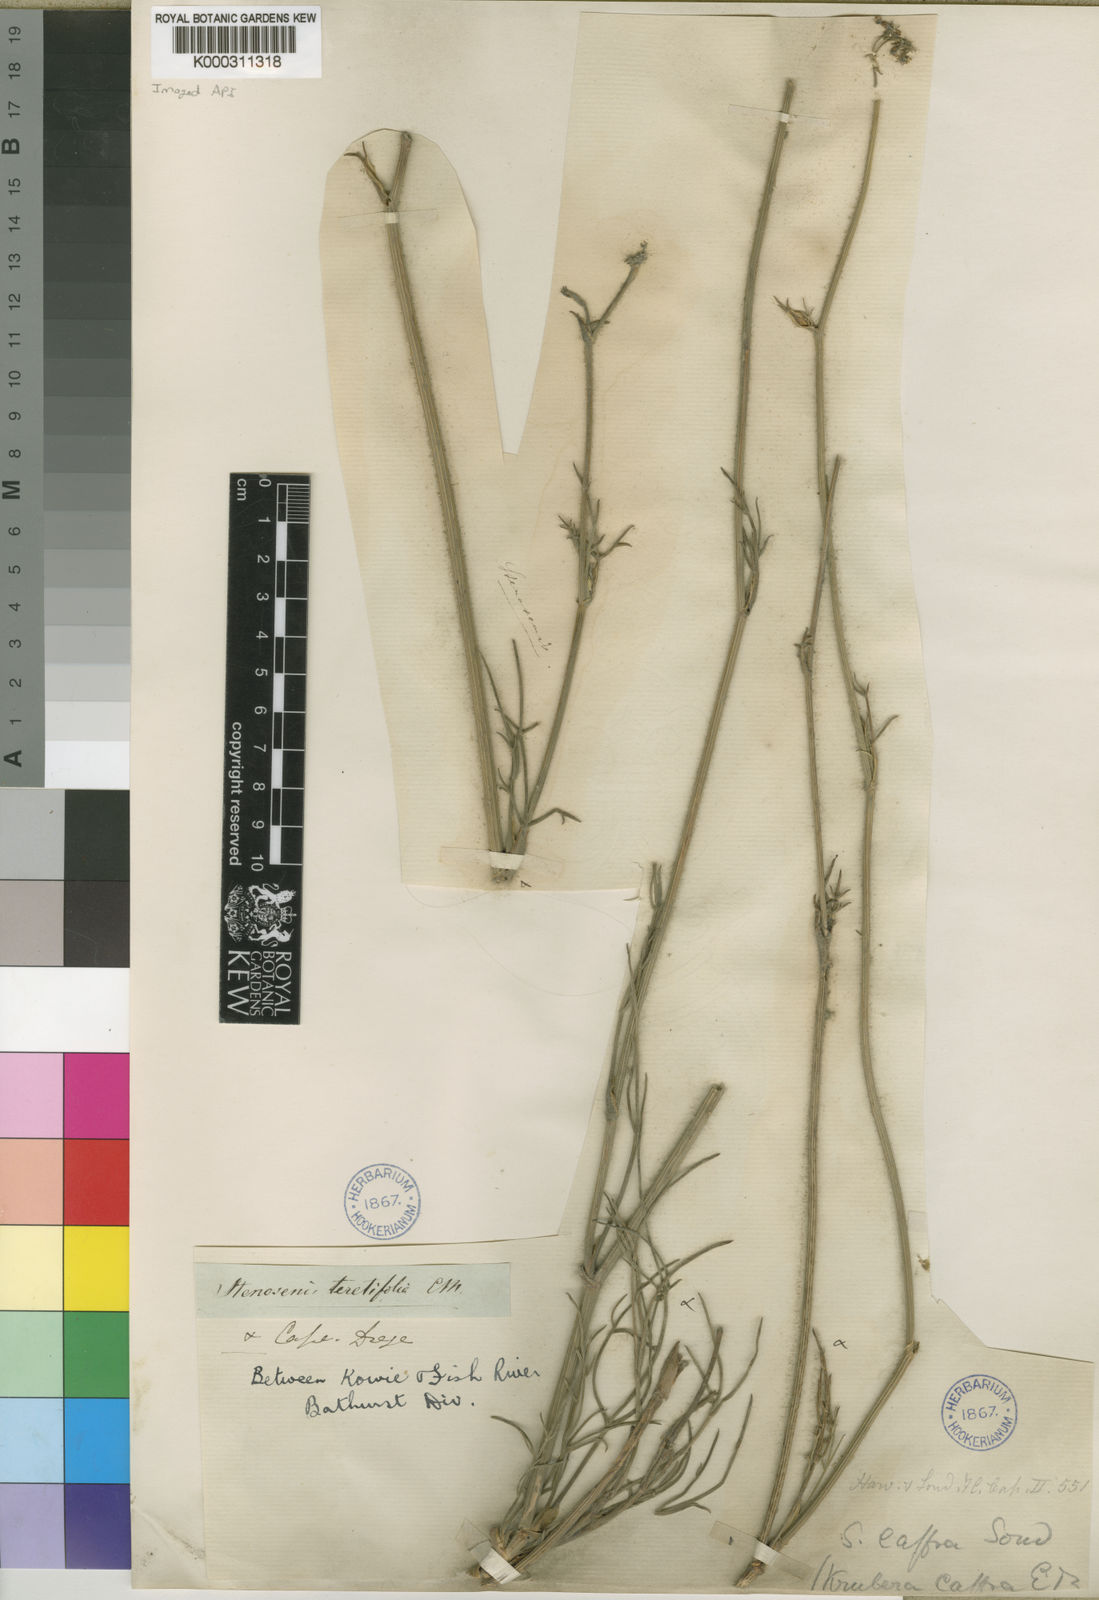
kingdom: Plantae
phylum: Tracheophyta
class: Magnoliopsida
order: Apiales
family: Apiaceae
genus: Stenosemis
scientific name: Stenosemis caffra
